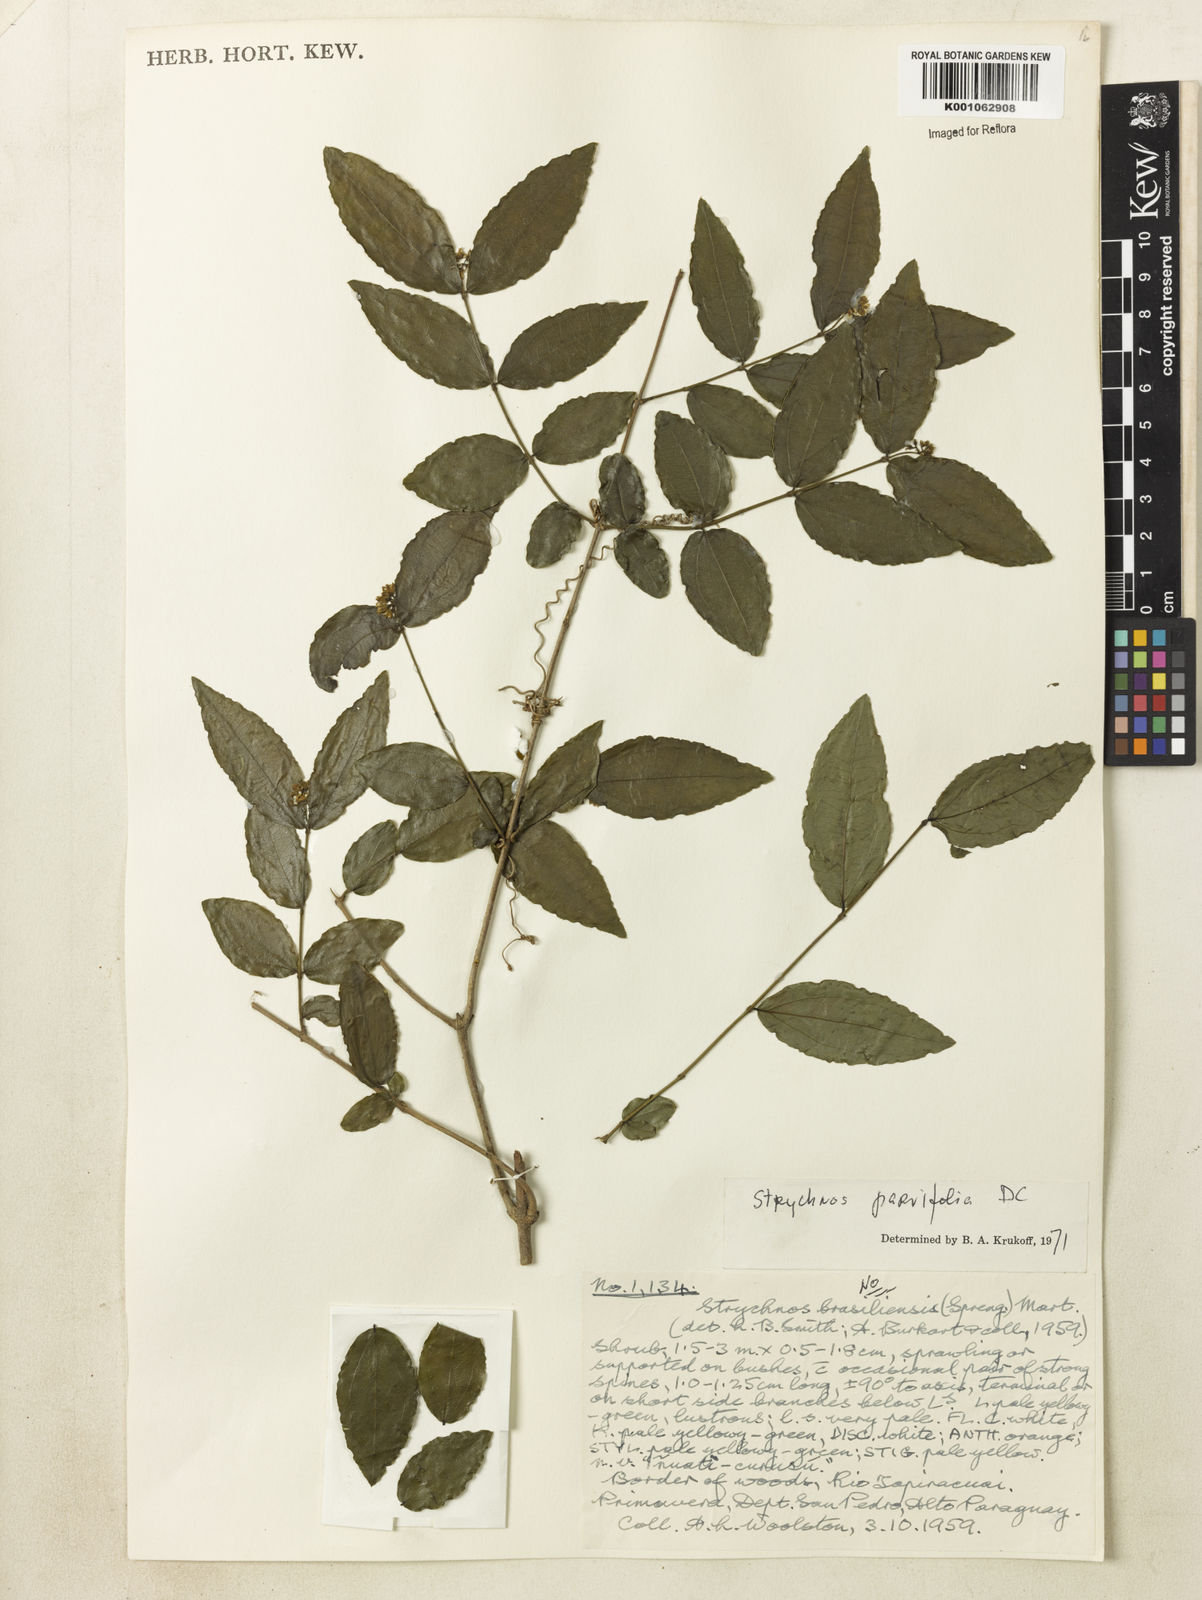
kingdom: Plantae
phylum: Tracheophyta
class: Magnoliopsida
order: Gentianales
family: Loganiaceae
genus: Strychnos
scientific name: Strychnos parvifolia
